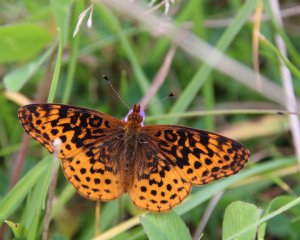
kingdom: Animalia
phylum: Arthropoda
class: Insecta
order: Lepidoptera
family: Nymphalidae
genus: Clossiana
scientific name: Clossiana toddi
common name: Meadow Fritillary
